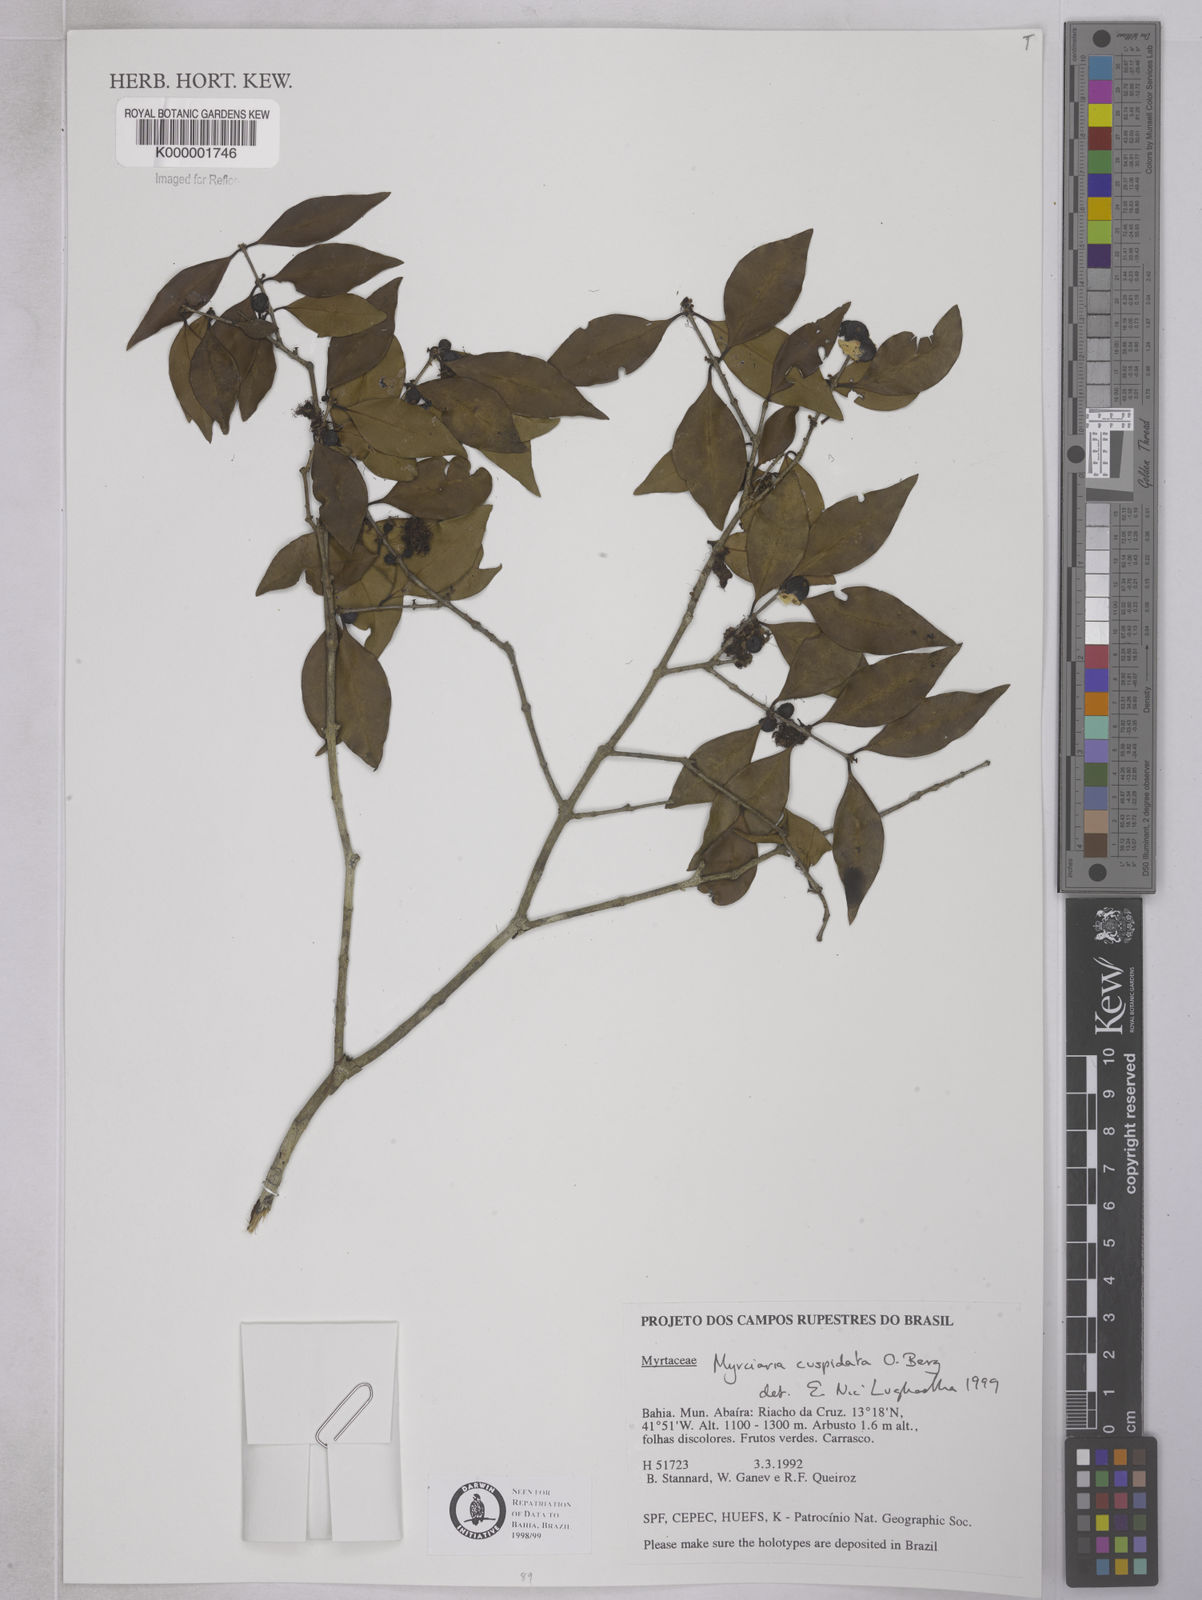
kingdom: Plantae
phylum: Tracheophyta
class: Magnoliopsida
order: Myrtales
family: Myrtaceae
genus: Myrciaria
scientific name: Myrciaria cuspidata
